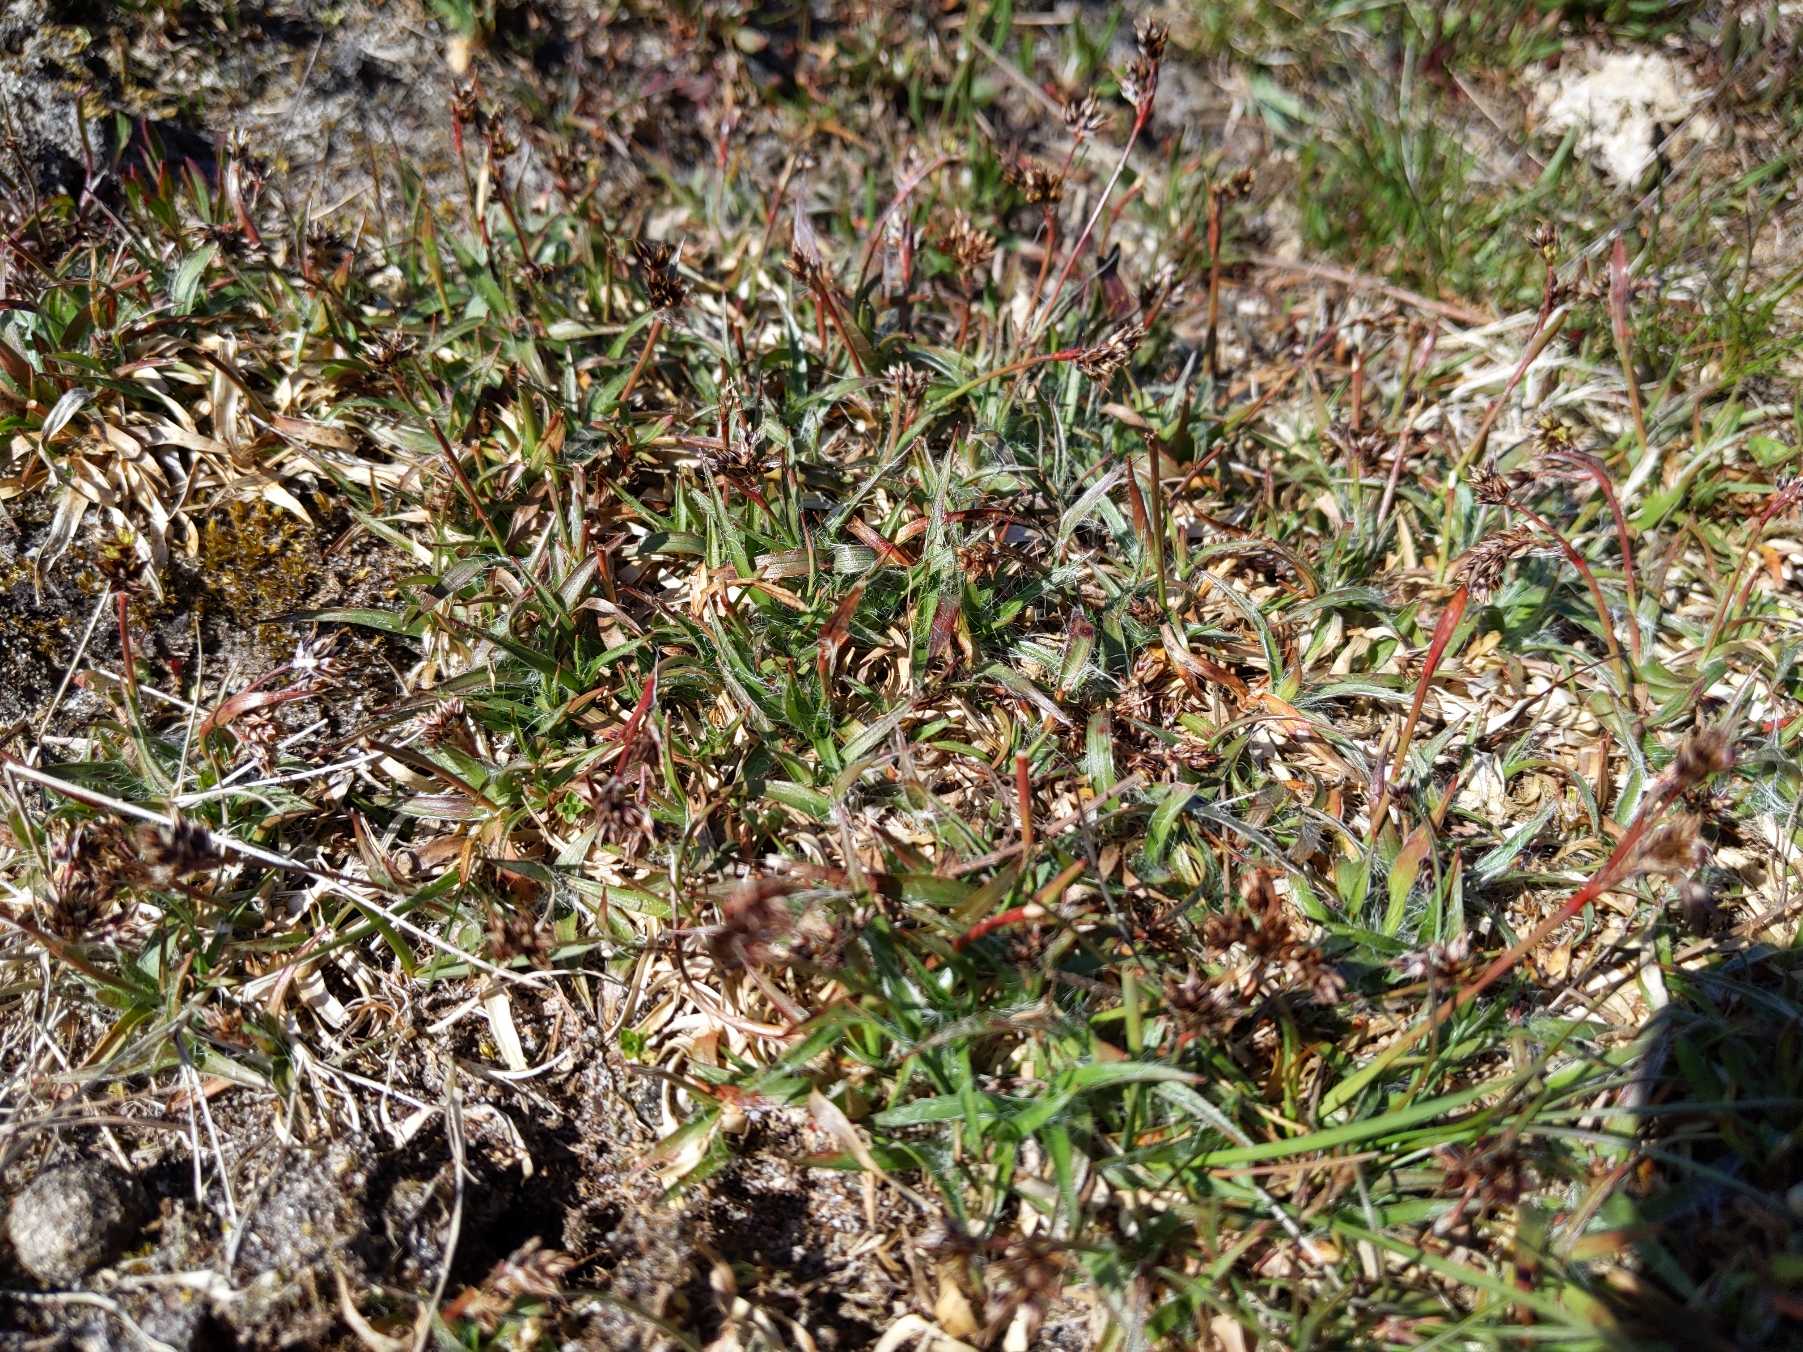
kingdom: Plantae
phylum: Tracheophyta
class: Liliopsida
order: Poales
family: Juncaceae
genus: Luzula
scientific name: Luzula campestris
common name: Mark-frytle
